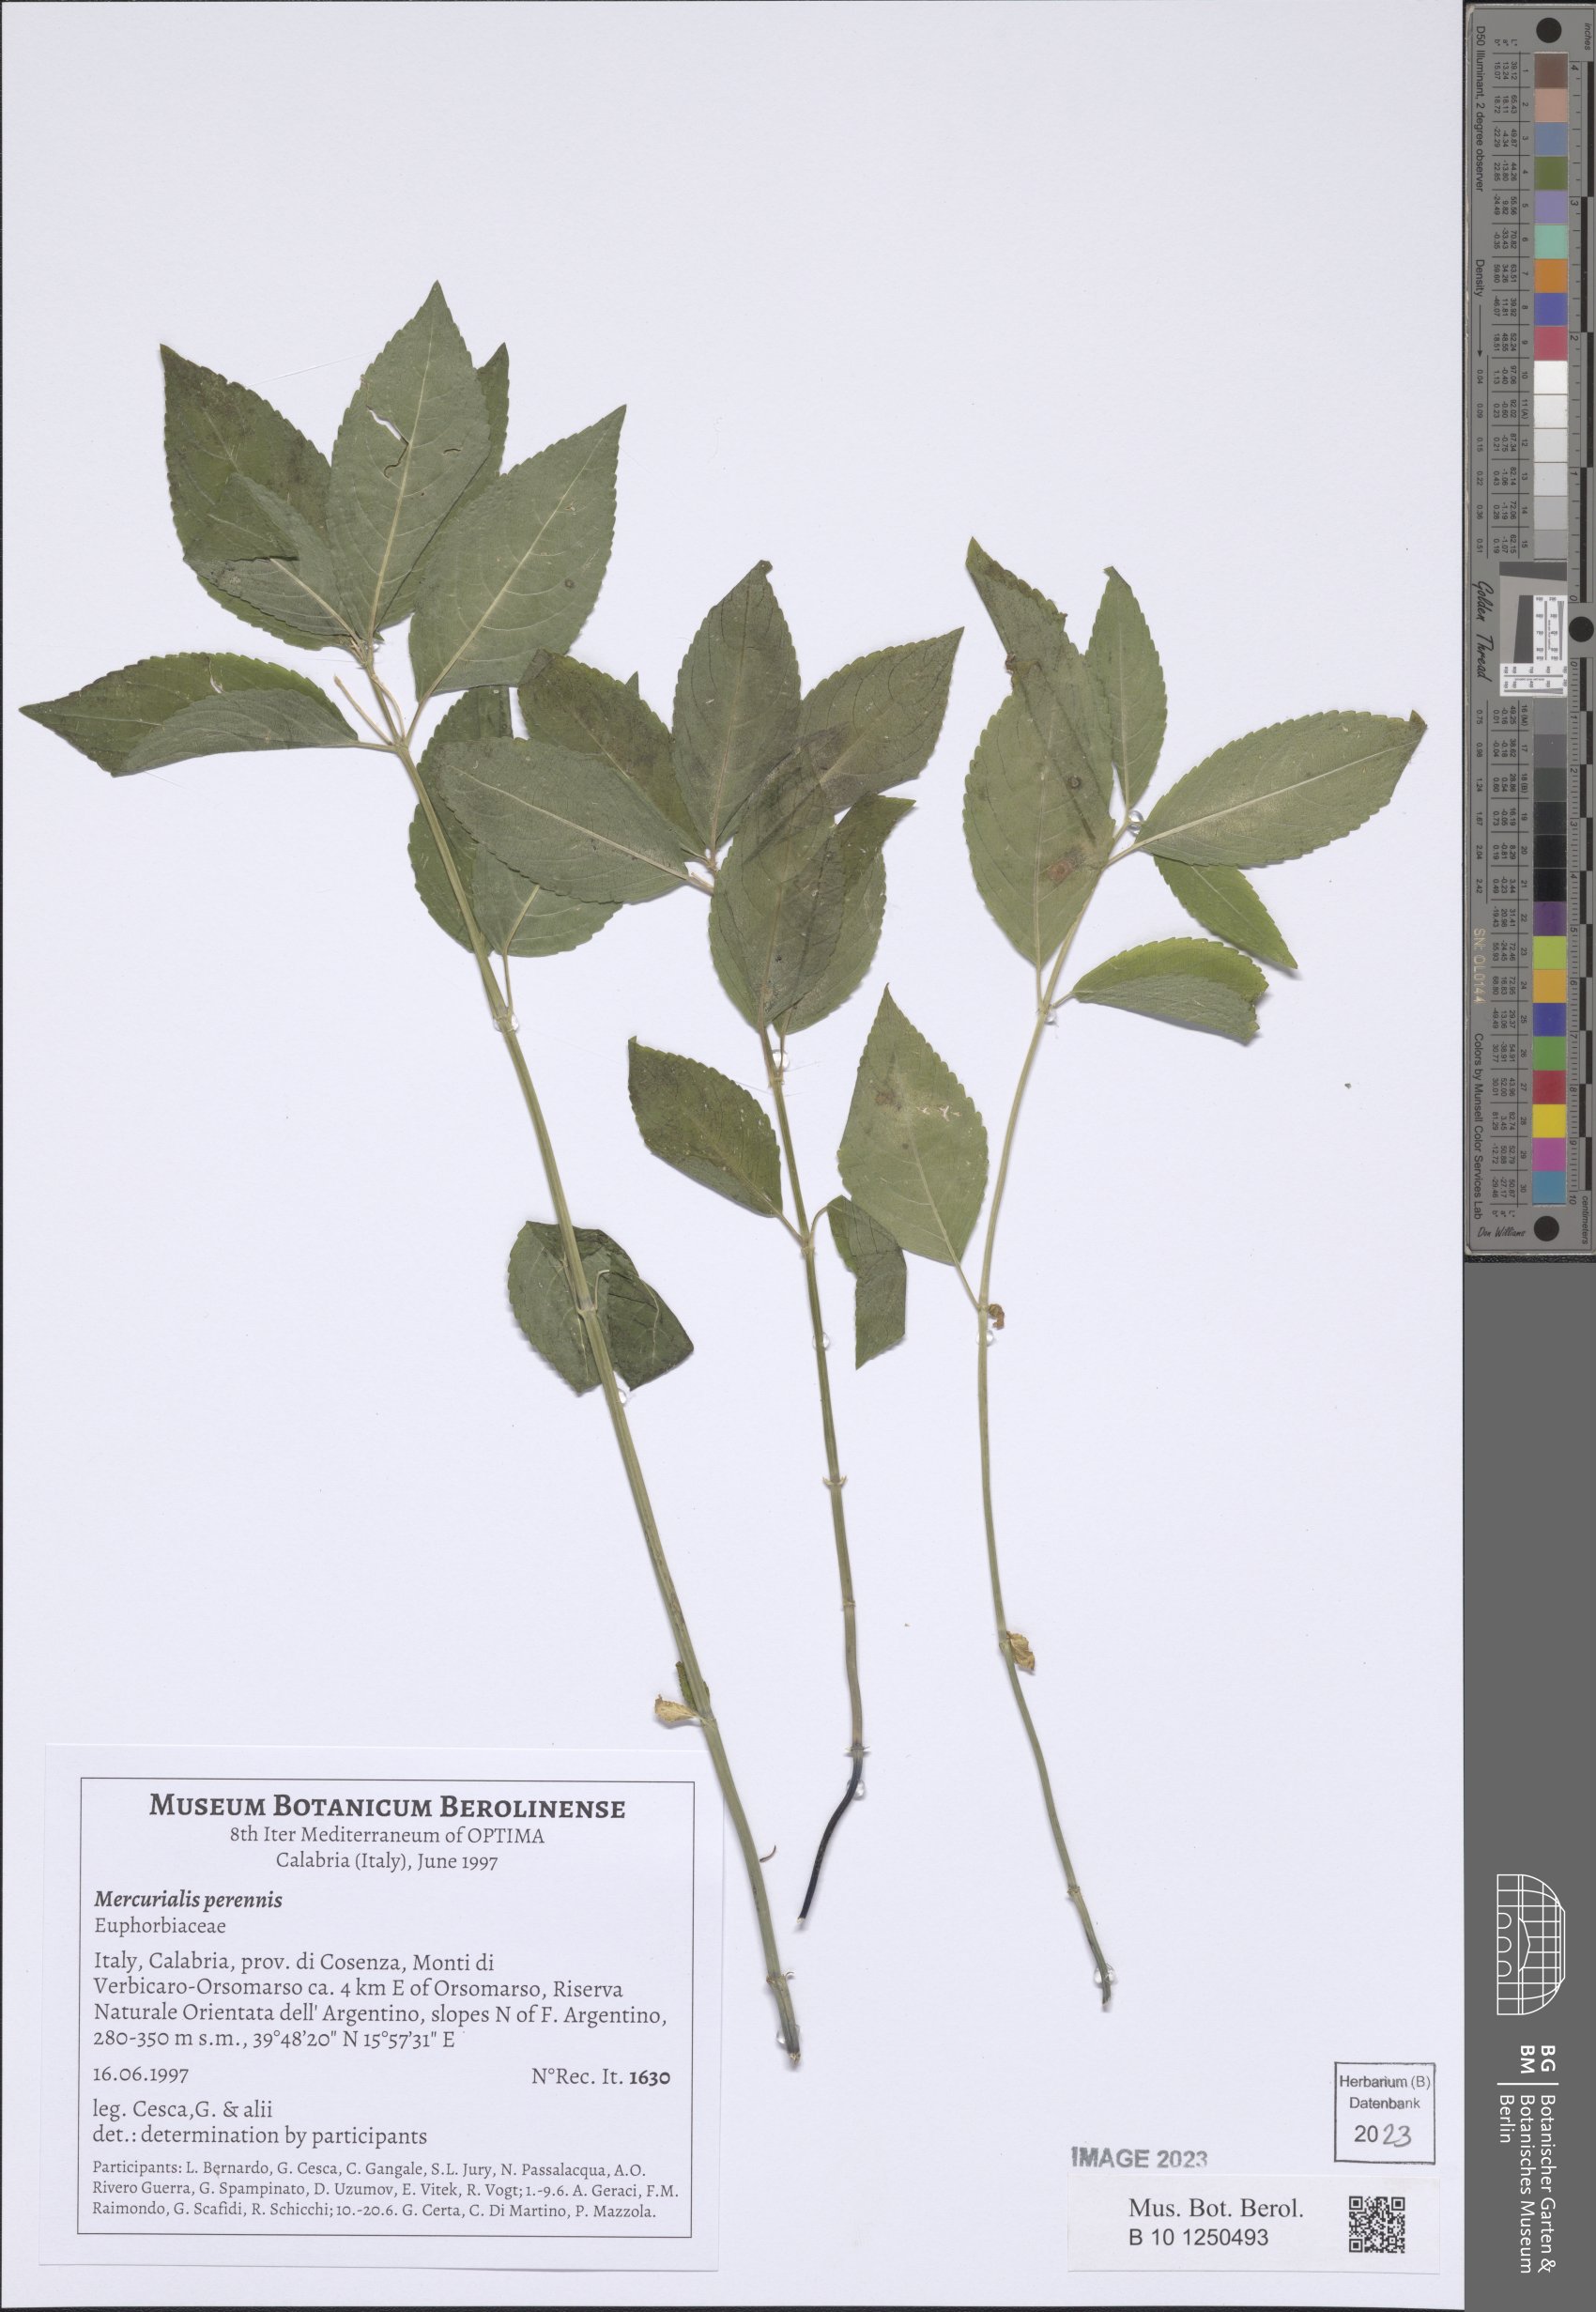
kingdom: Plantae
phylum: Tracheophyta
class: Magnoliopsida
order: Malpighiales
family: Euphorbiaceae
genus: Mercurialis
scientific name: Mercurialis perennis
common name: Dog mercury
